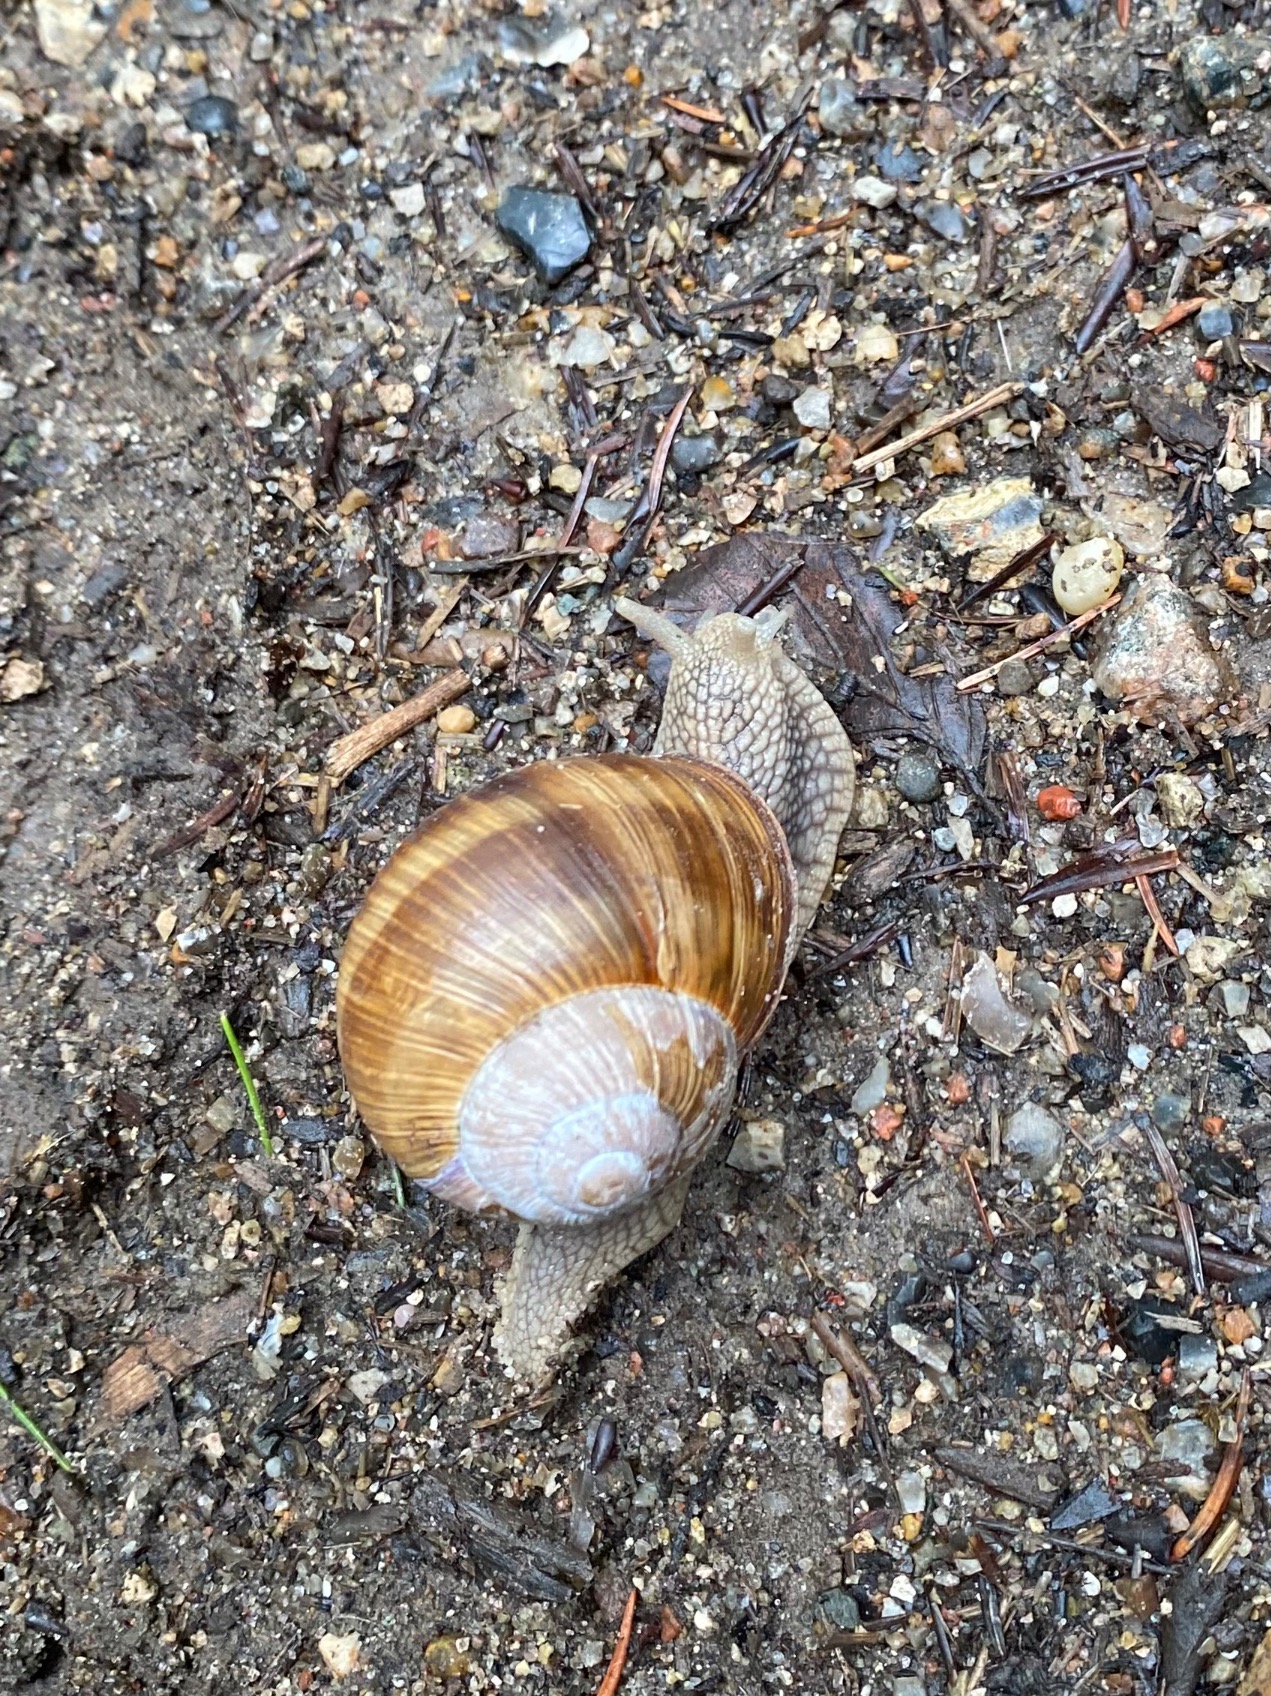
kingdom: Animalia
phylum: Mollusca
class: Gastropoda
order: Stylommatophora
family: Helicidae
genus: Helix
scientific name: Helix pomatia
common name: Vinbjergsnegl
